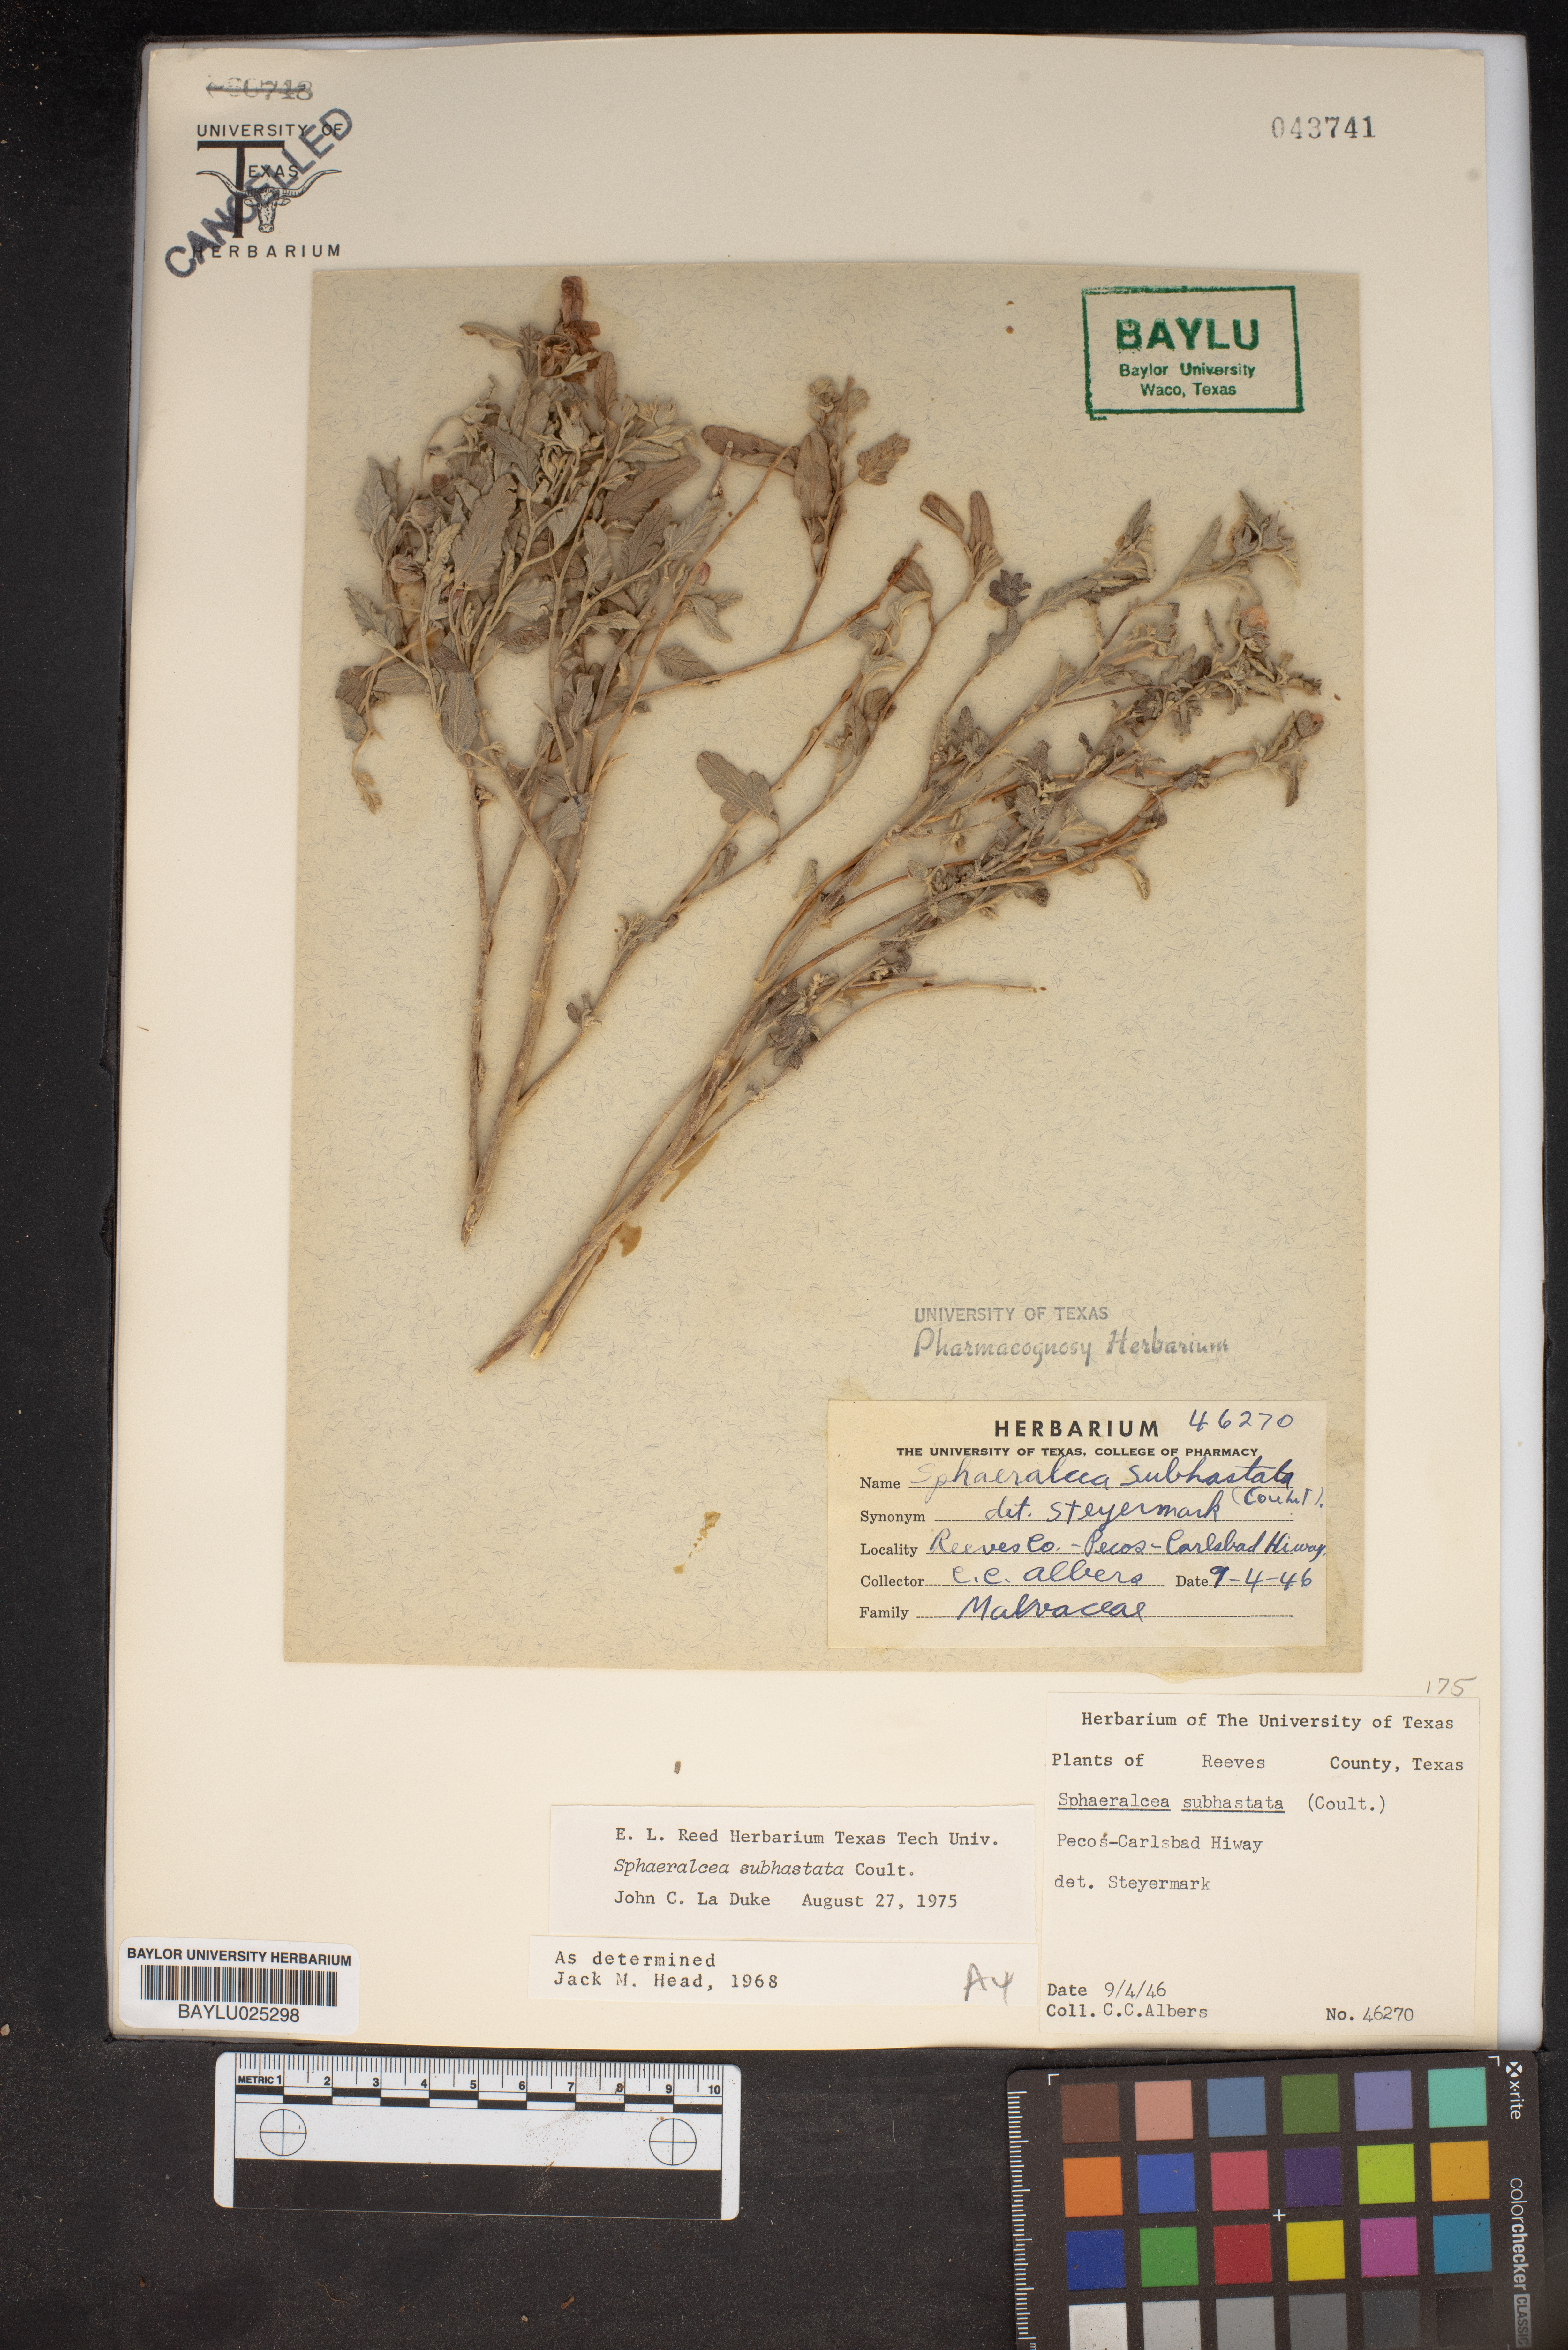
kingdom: Plantae
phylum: Tracheophyta
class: Magnoliopsida
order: Malvales
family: Malvaceae
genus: Sphaeralcea
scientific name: Sphaeralcea hastulata
